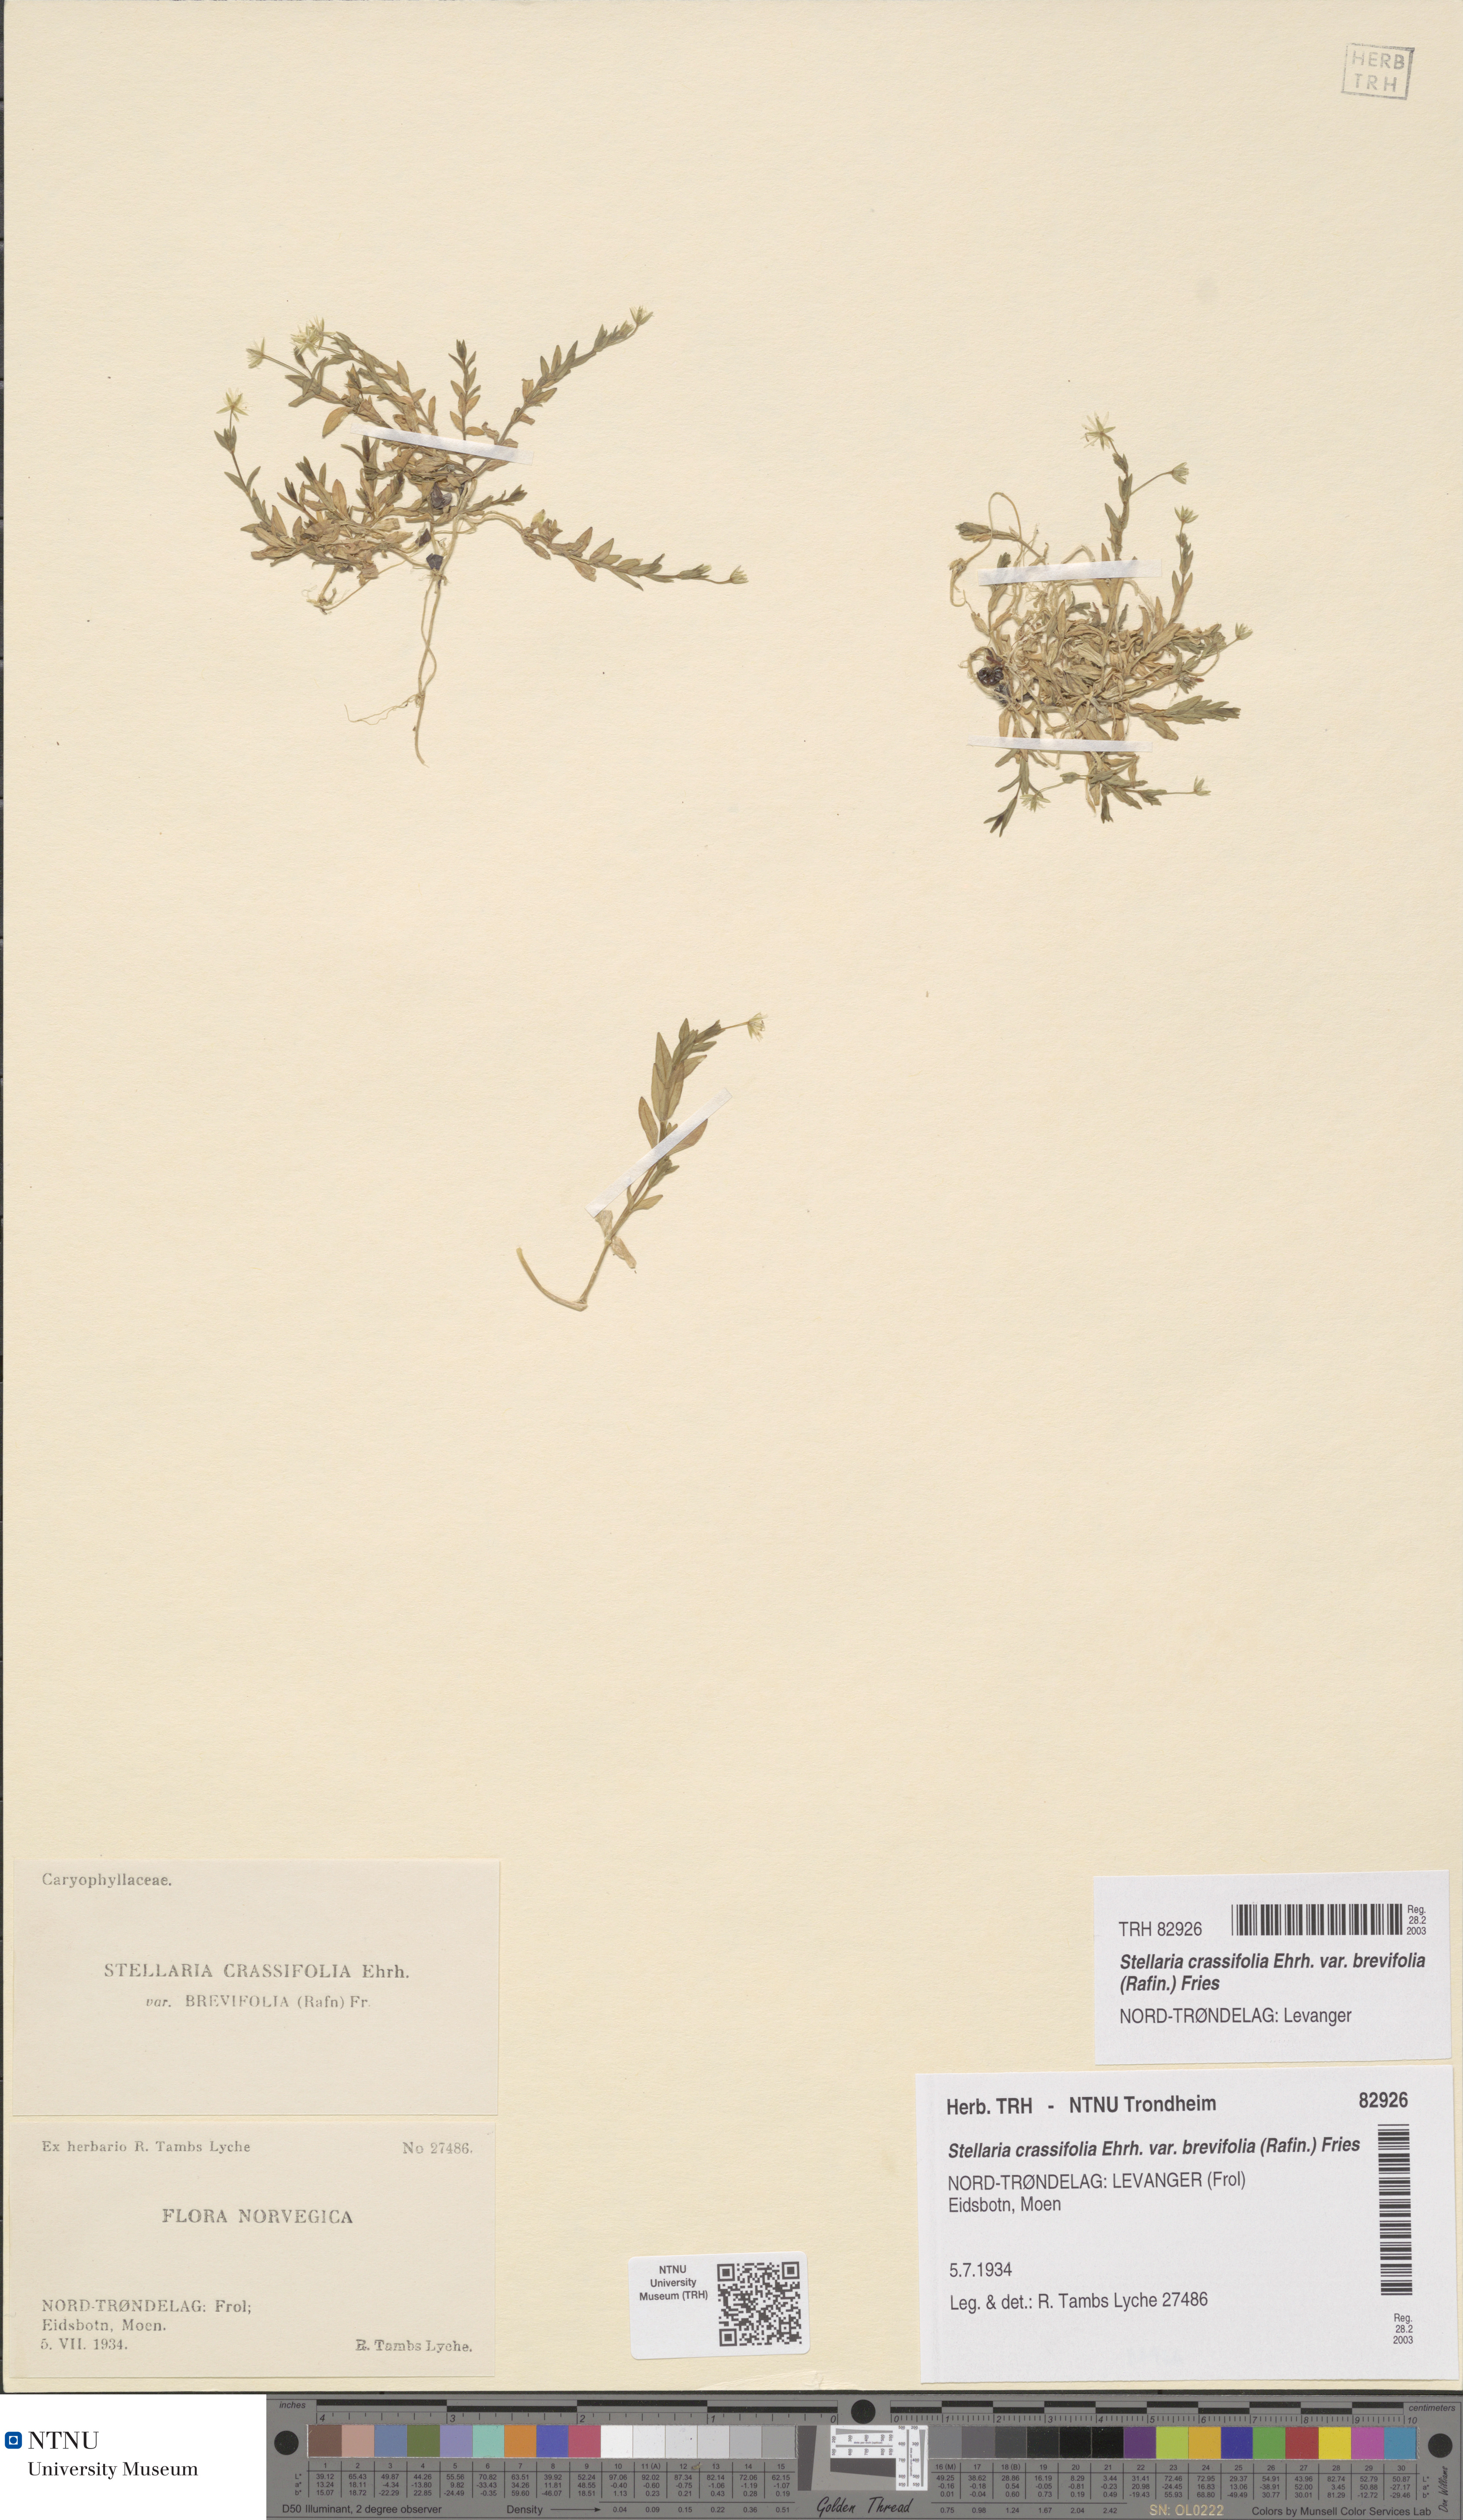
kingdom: Plantae
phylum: Tracheophyta
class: Magnoliopsida
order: Caryophyllales
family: Caryophyllaceae
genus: Stellaria
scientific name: Stellaria crassifolia
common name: Fleshy starwort
